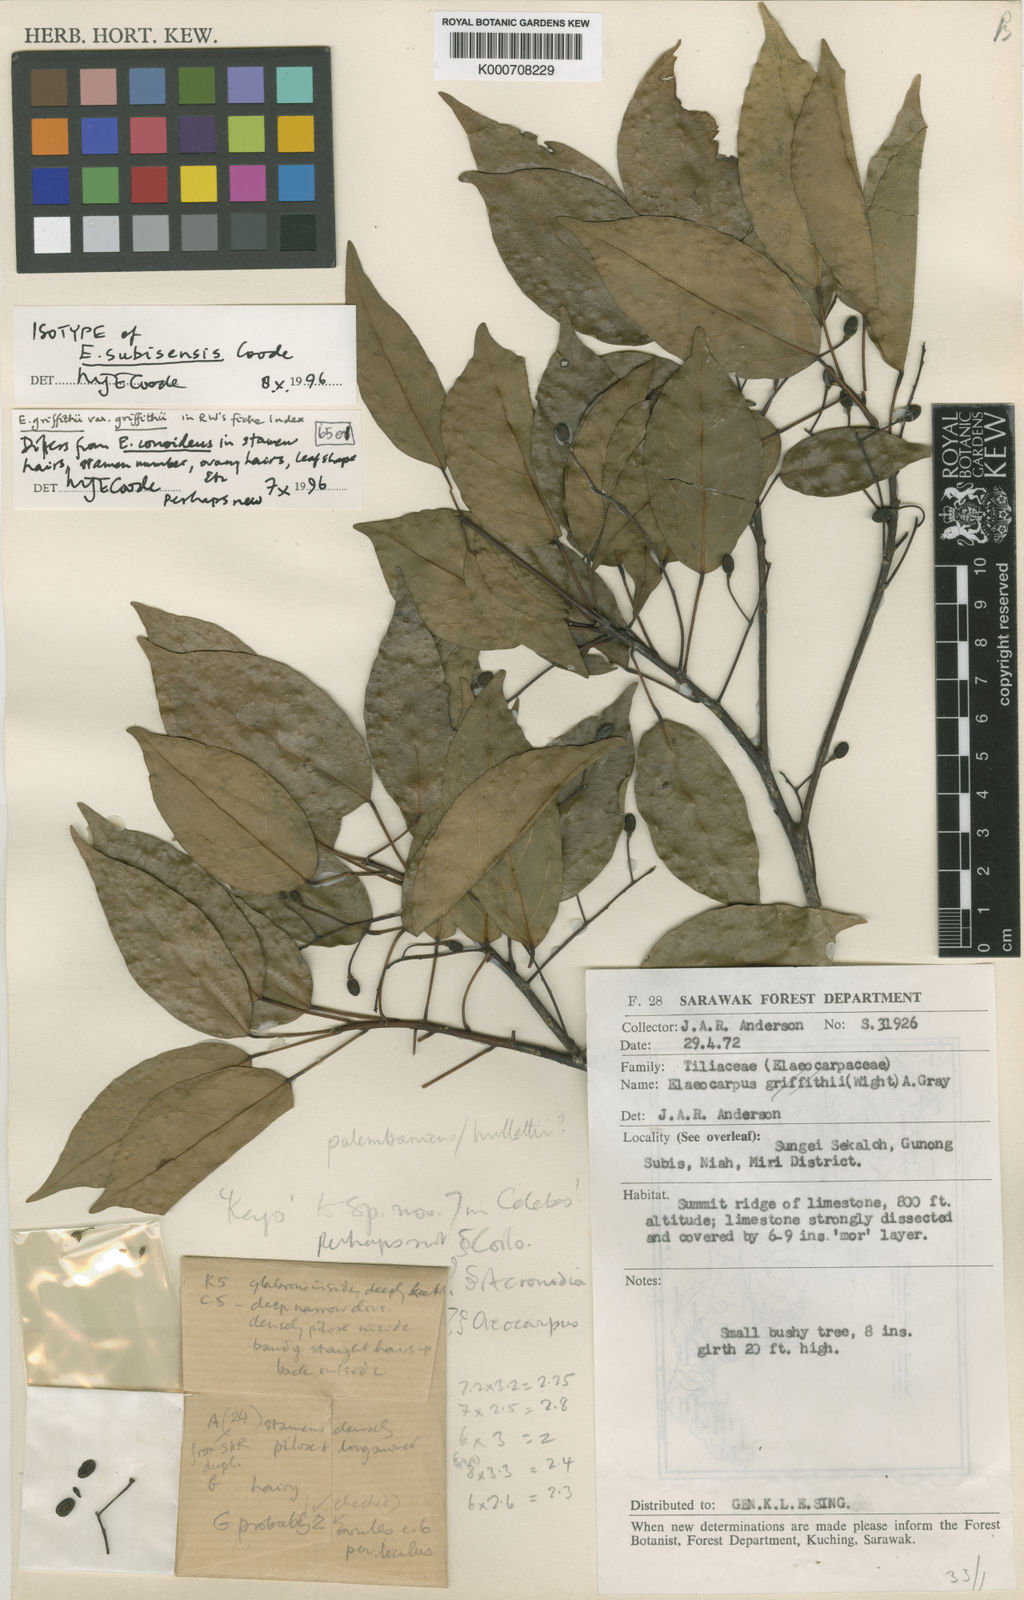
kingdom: Plantae
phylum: Tracheophyta
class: Magnoliopsida
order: Oxalidales
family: Elaeocarpaceae
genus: Elaeocarpus
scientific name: Elaeocarpus subisensis
